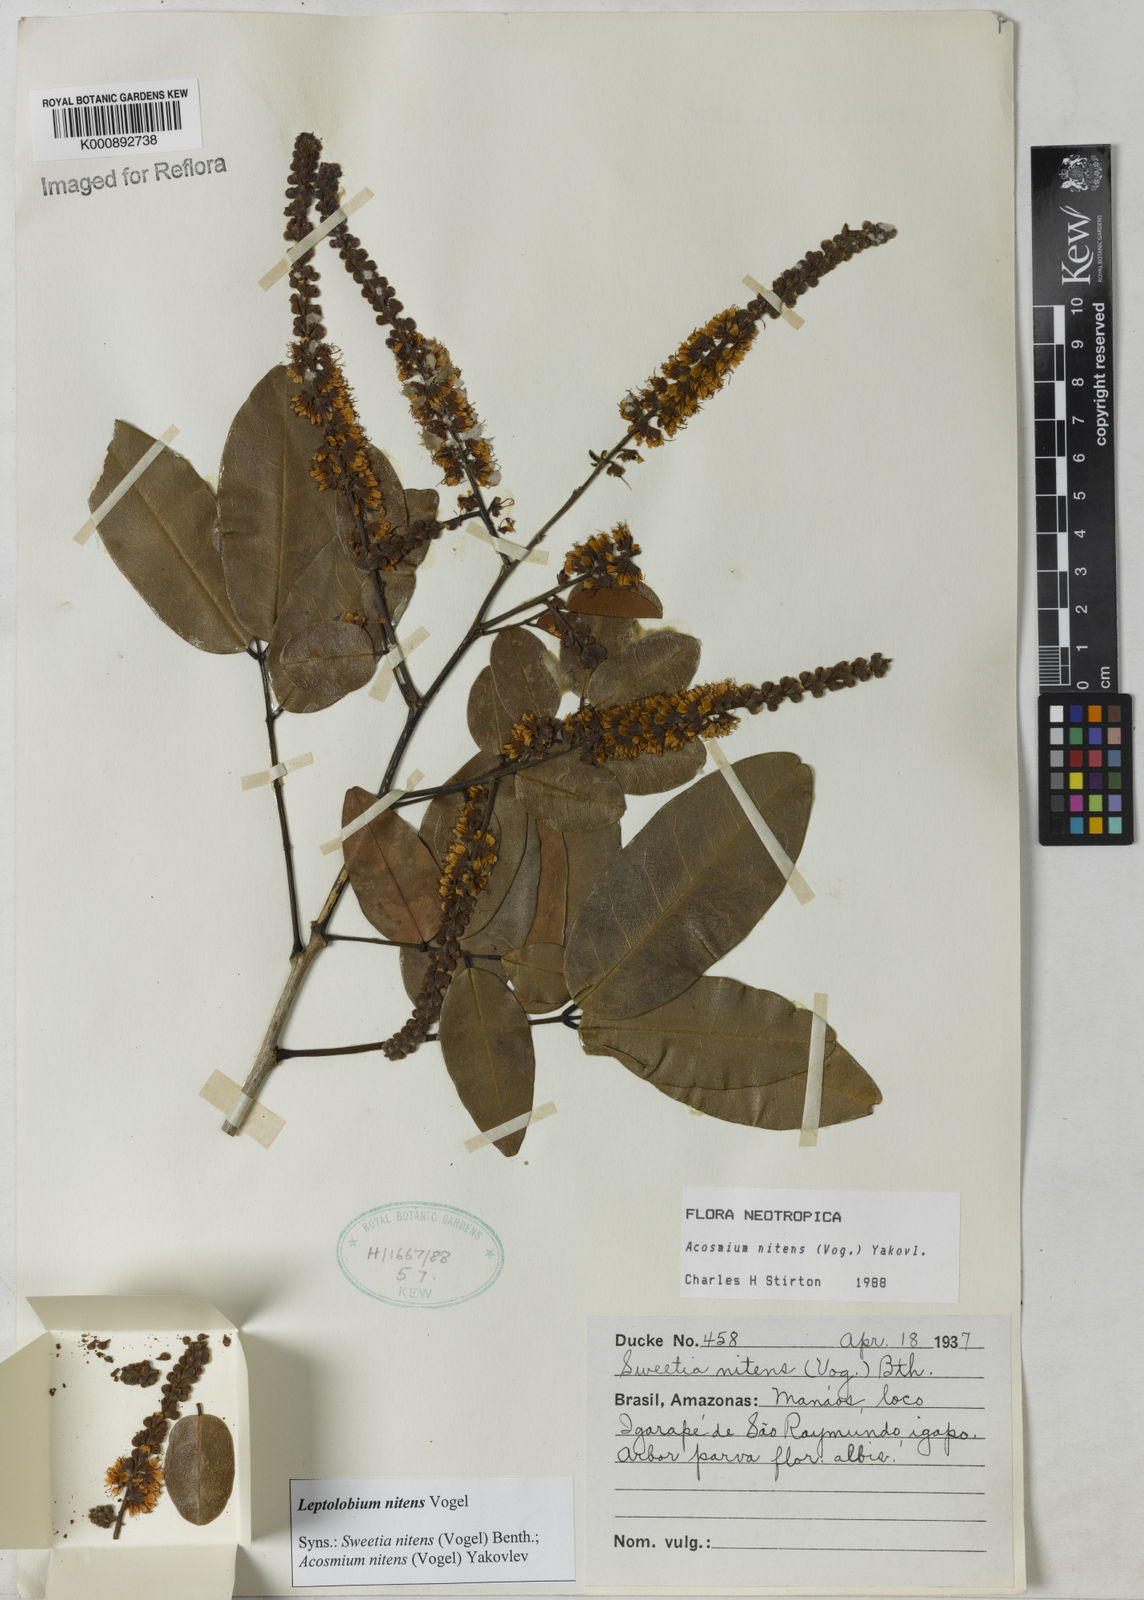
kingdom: Plantae
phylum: Tracheophyta
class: Magnoliopsida
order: Fabales
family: Fabaceae
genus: Leptolobium
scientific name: Leptolobium nitens
